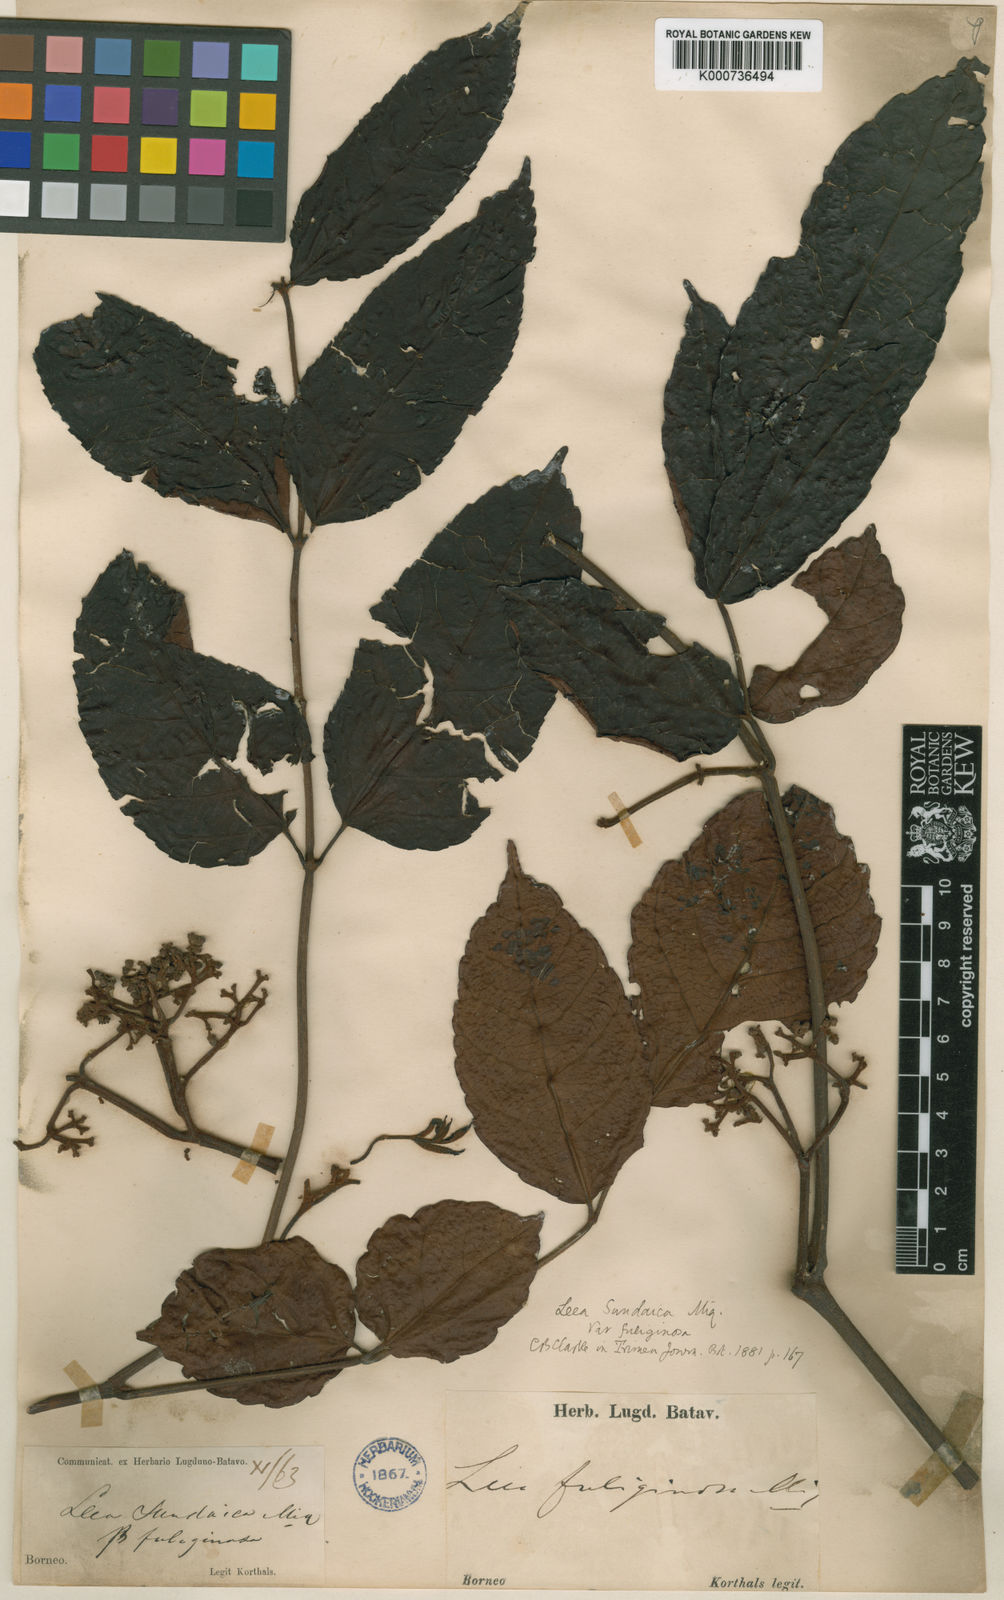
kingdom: Plantae
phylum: Tracheophyta
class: Magnoliopsida
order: Vitales
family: Vitaceae
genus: Leea
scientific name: Leea indica
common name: Bandicoot-berry
